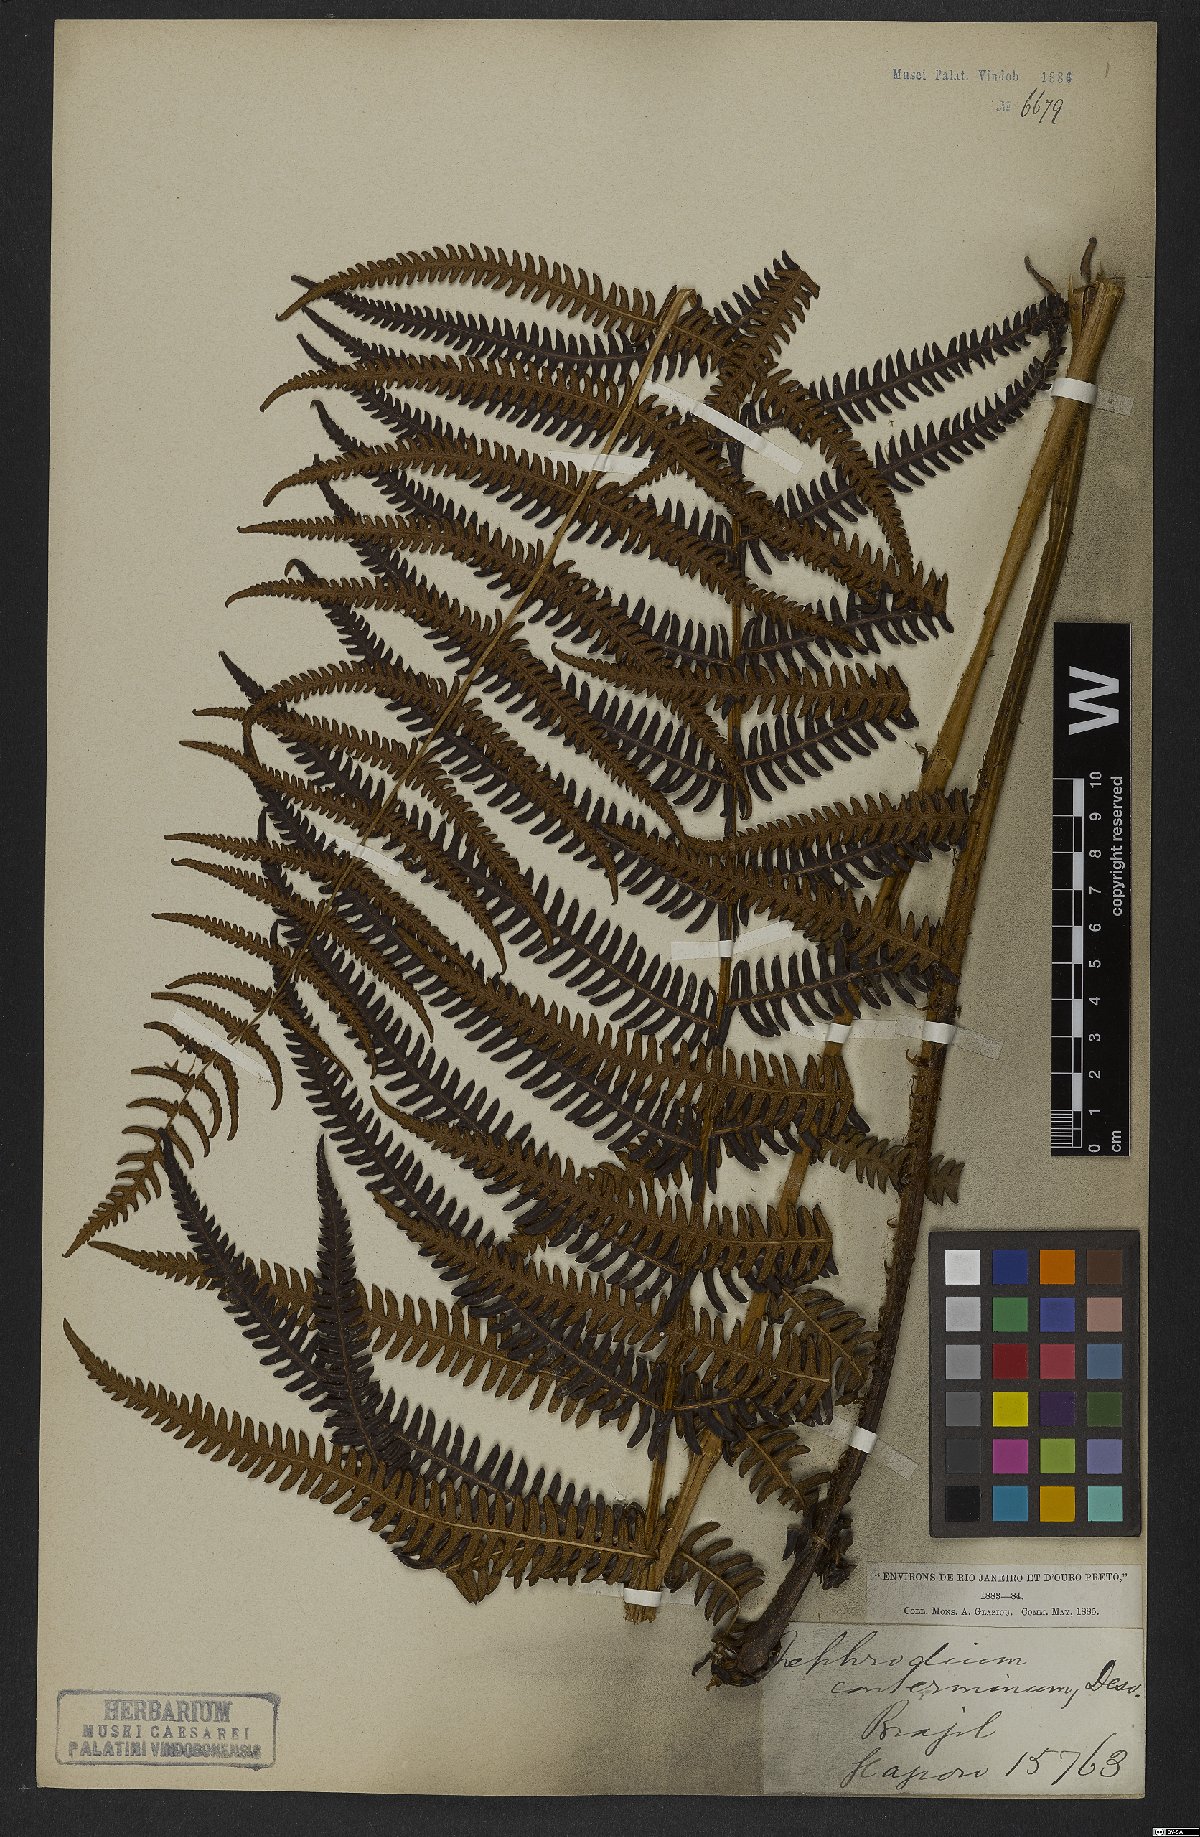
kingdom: Plantae
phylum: Tracheophyta
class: Polypodiopsida
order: Polypodiales
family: Thelypteridaceae
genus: Amauropelta
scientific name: Amauropelta opposita
